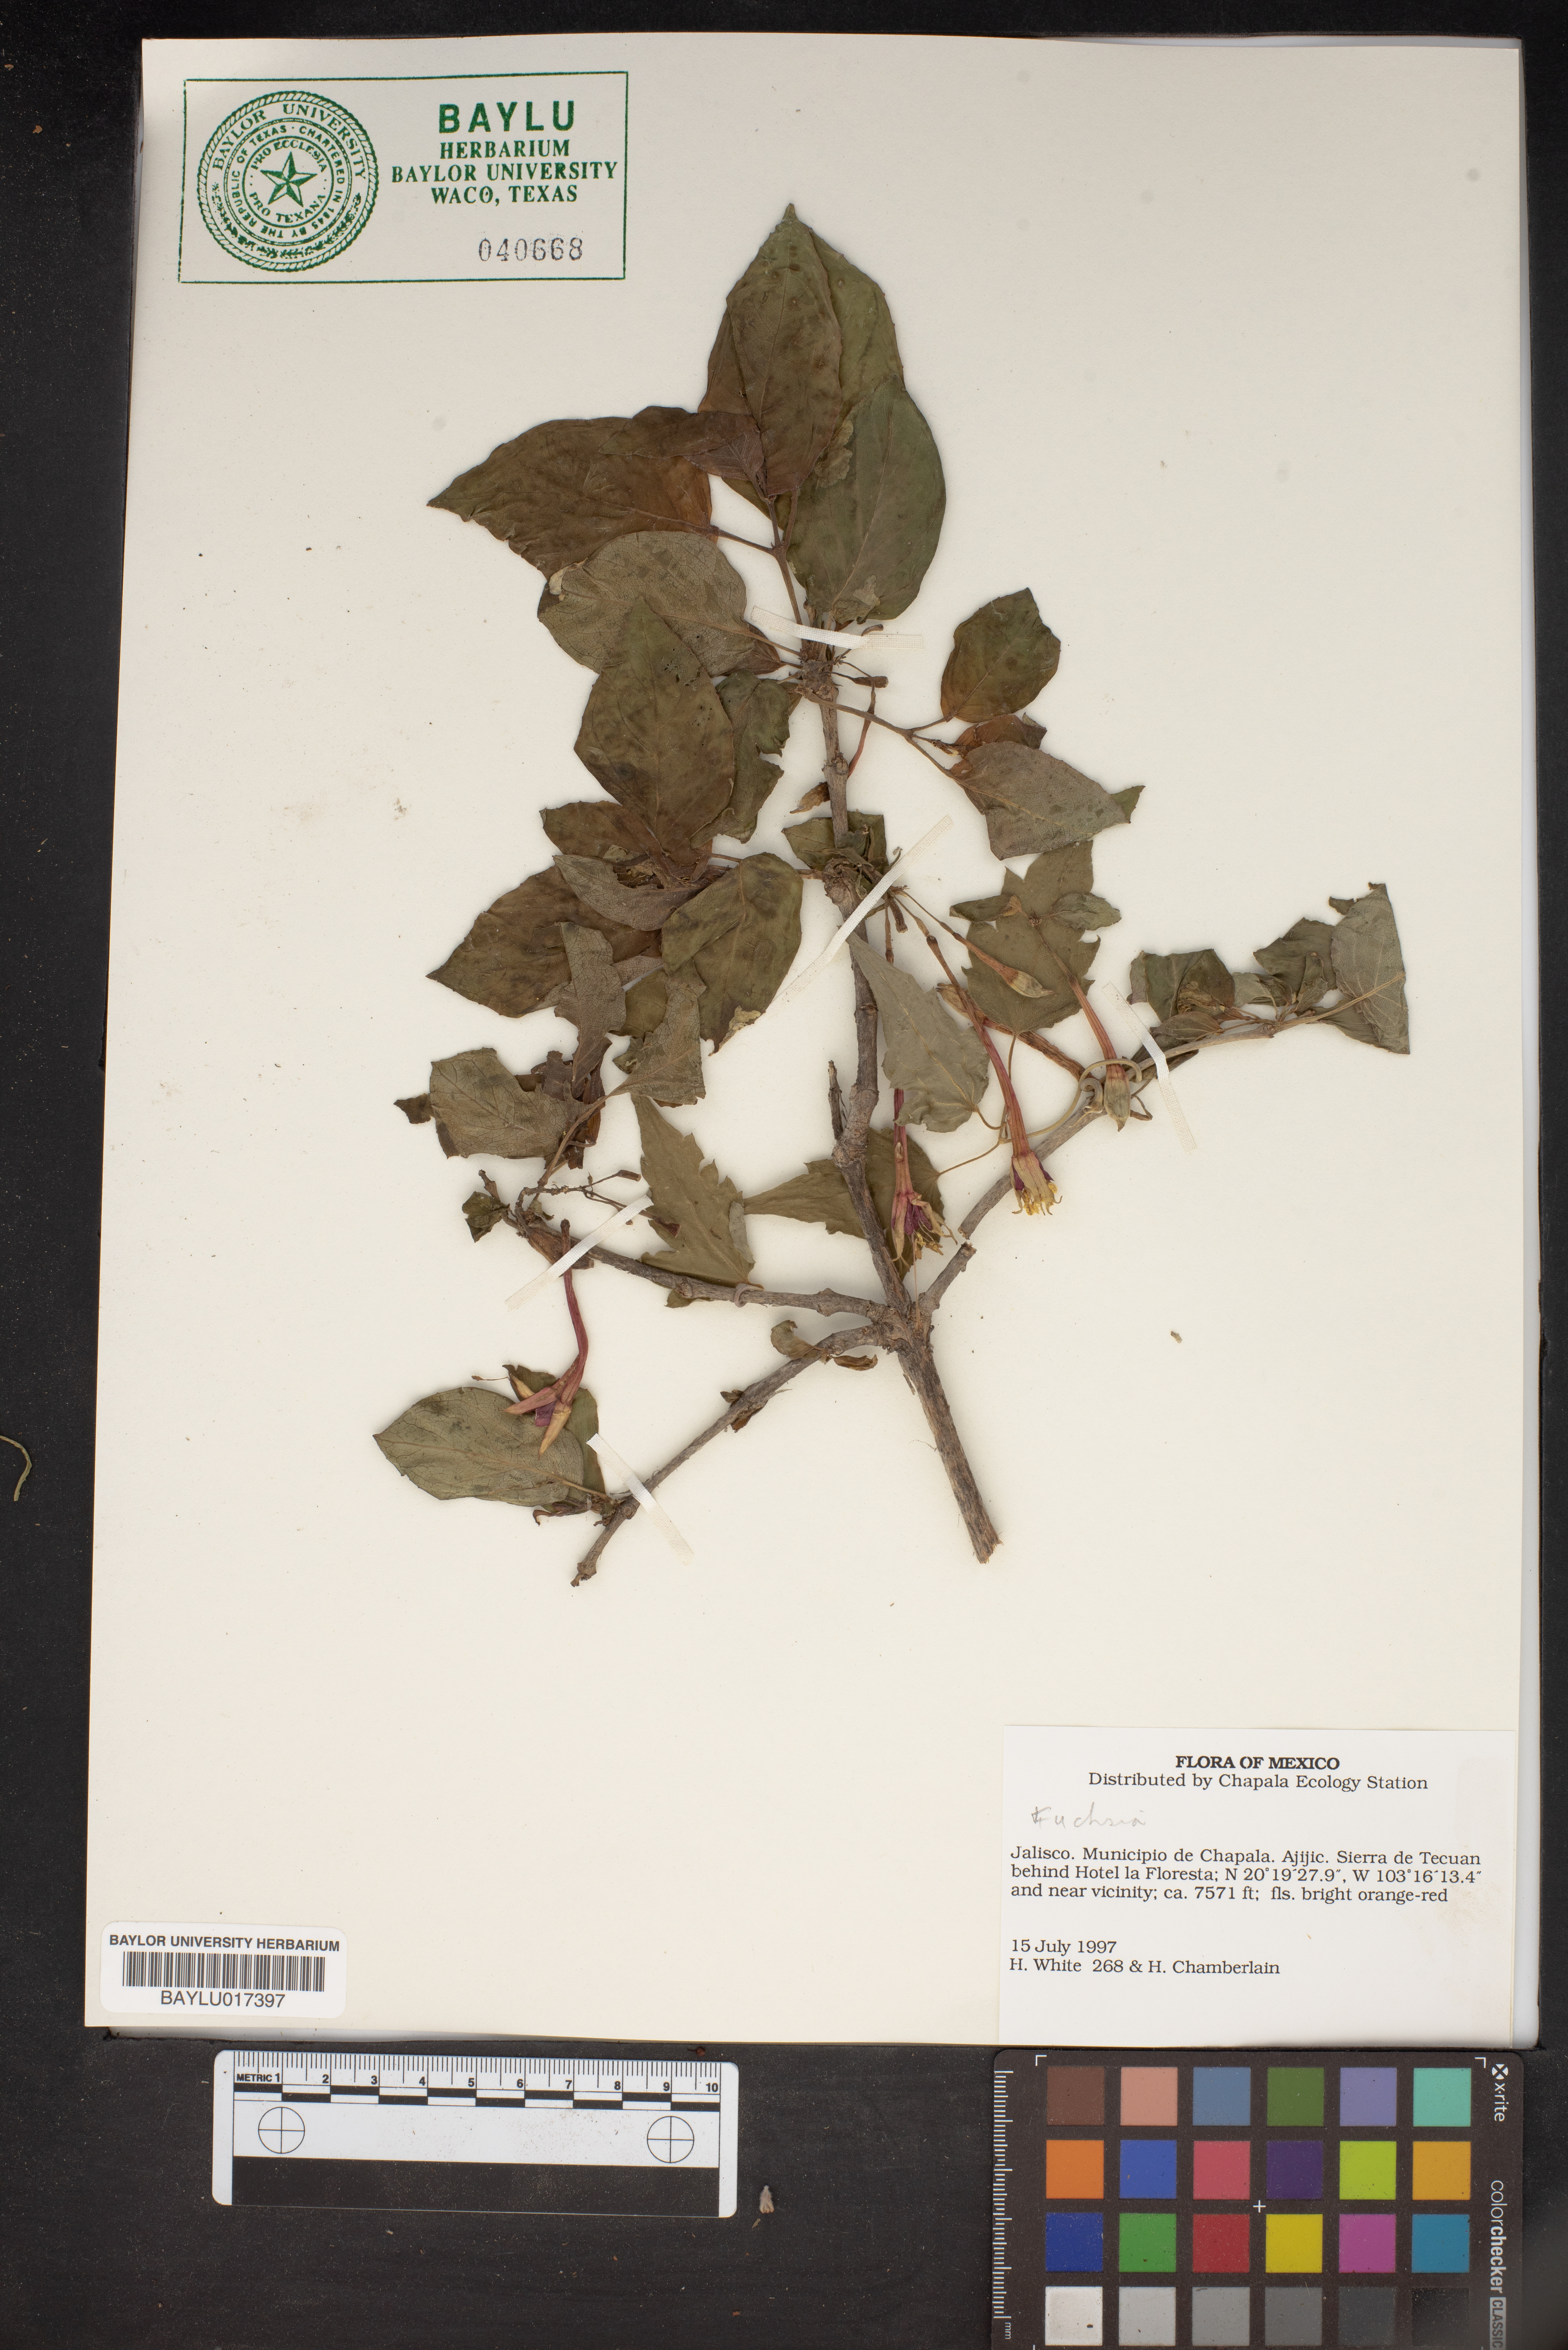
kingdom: Plantae
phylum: Tracheophyta
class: Liliopsida
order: Asparagales
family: Amaryllidaceae
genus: Urceolina
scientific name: Urceolina
